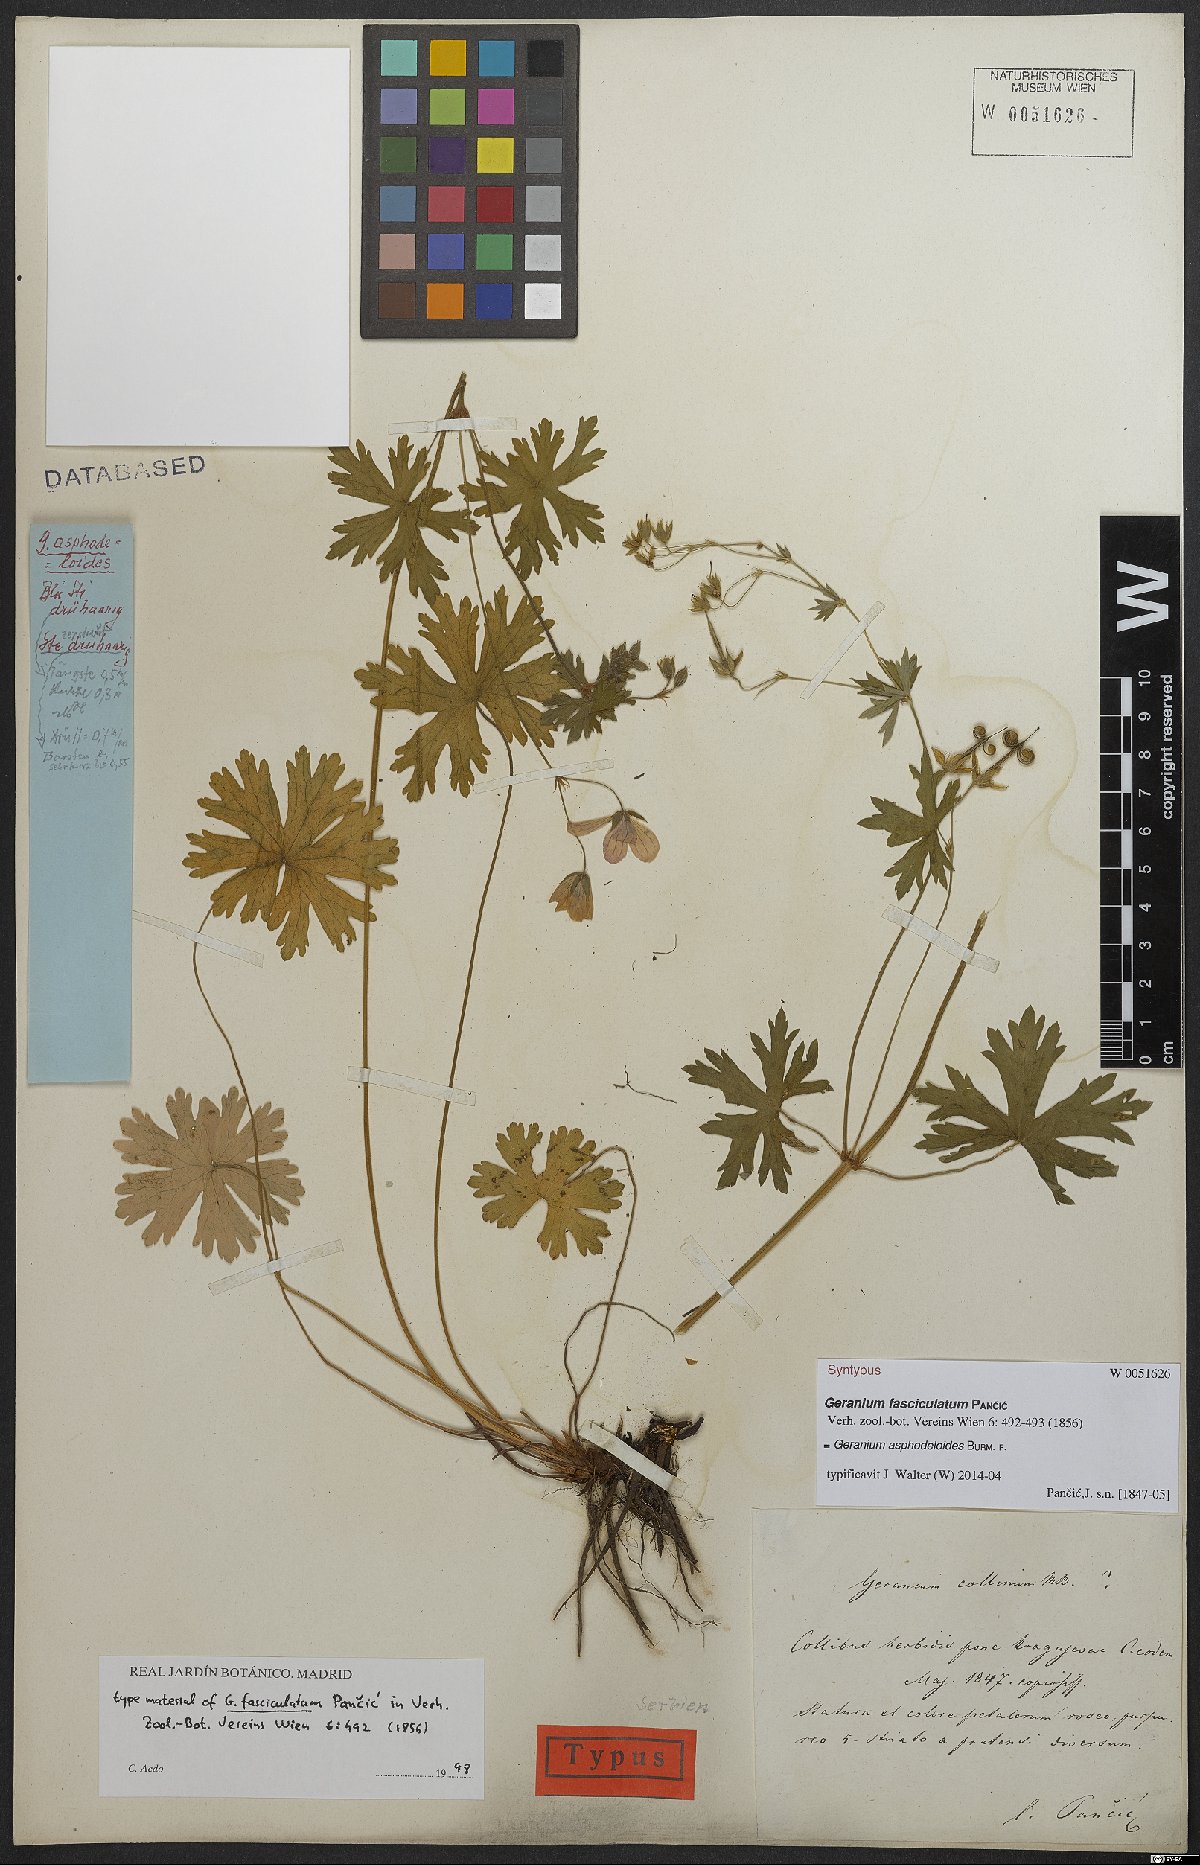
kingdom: Plantae
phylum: Tracheophyta
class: Magnoliopsida
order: Geraniales
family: Geraniaceae
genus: Geranium
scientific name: Geranium asphodeloides
